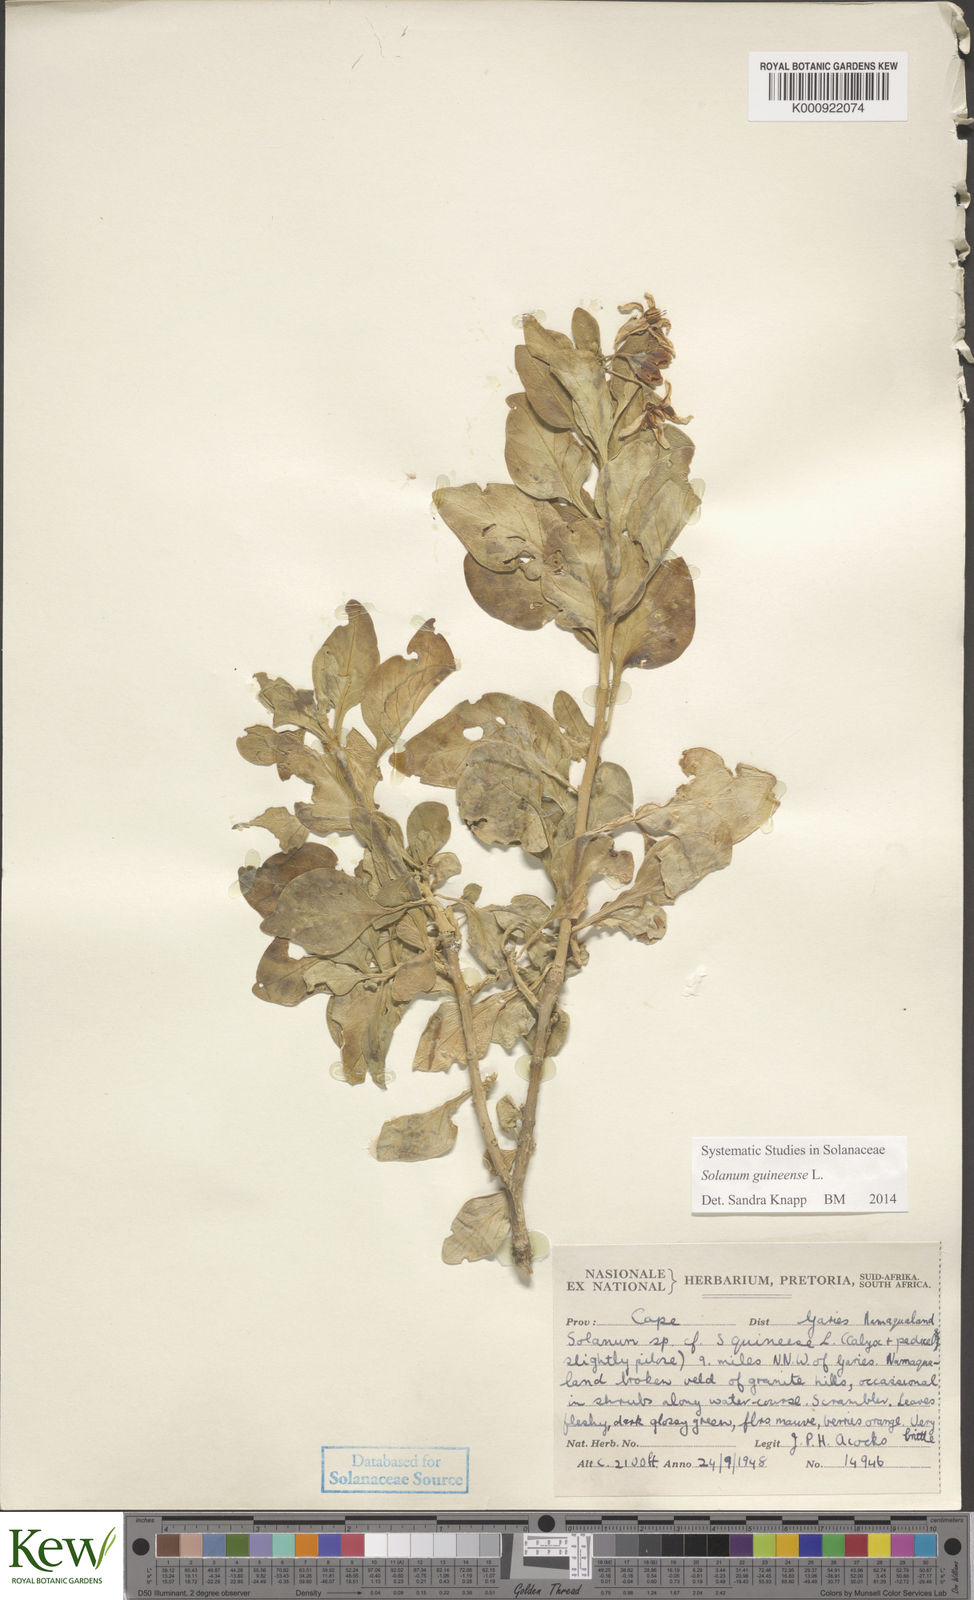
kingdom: Plantae
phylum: Tracheophyta
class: Magnoliopsida
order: Solanales
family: Solanaceae
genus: Solanum
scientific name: Solanum guineense
